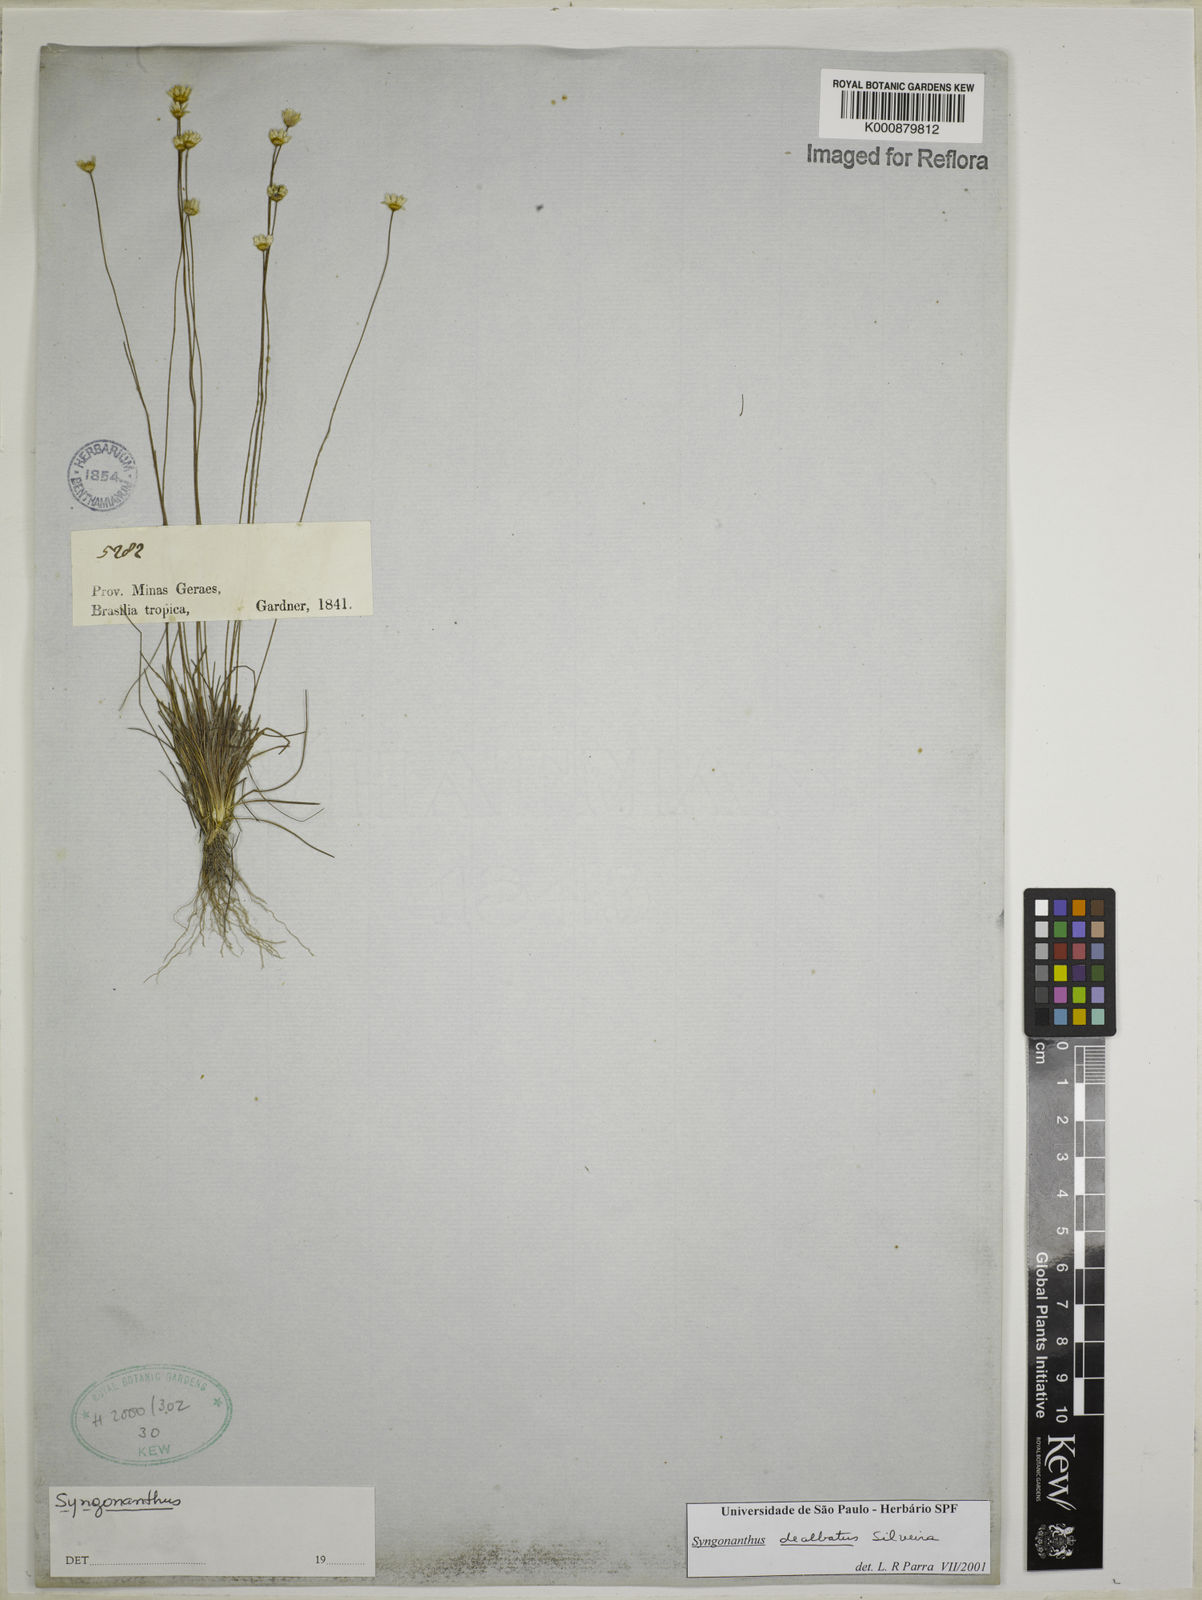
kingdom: Plantae
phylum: Tracheophyta
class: Liliopsida
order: Poales
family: Eriocaulaceae
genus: Comanthera
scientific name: Comanthera dealbata
